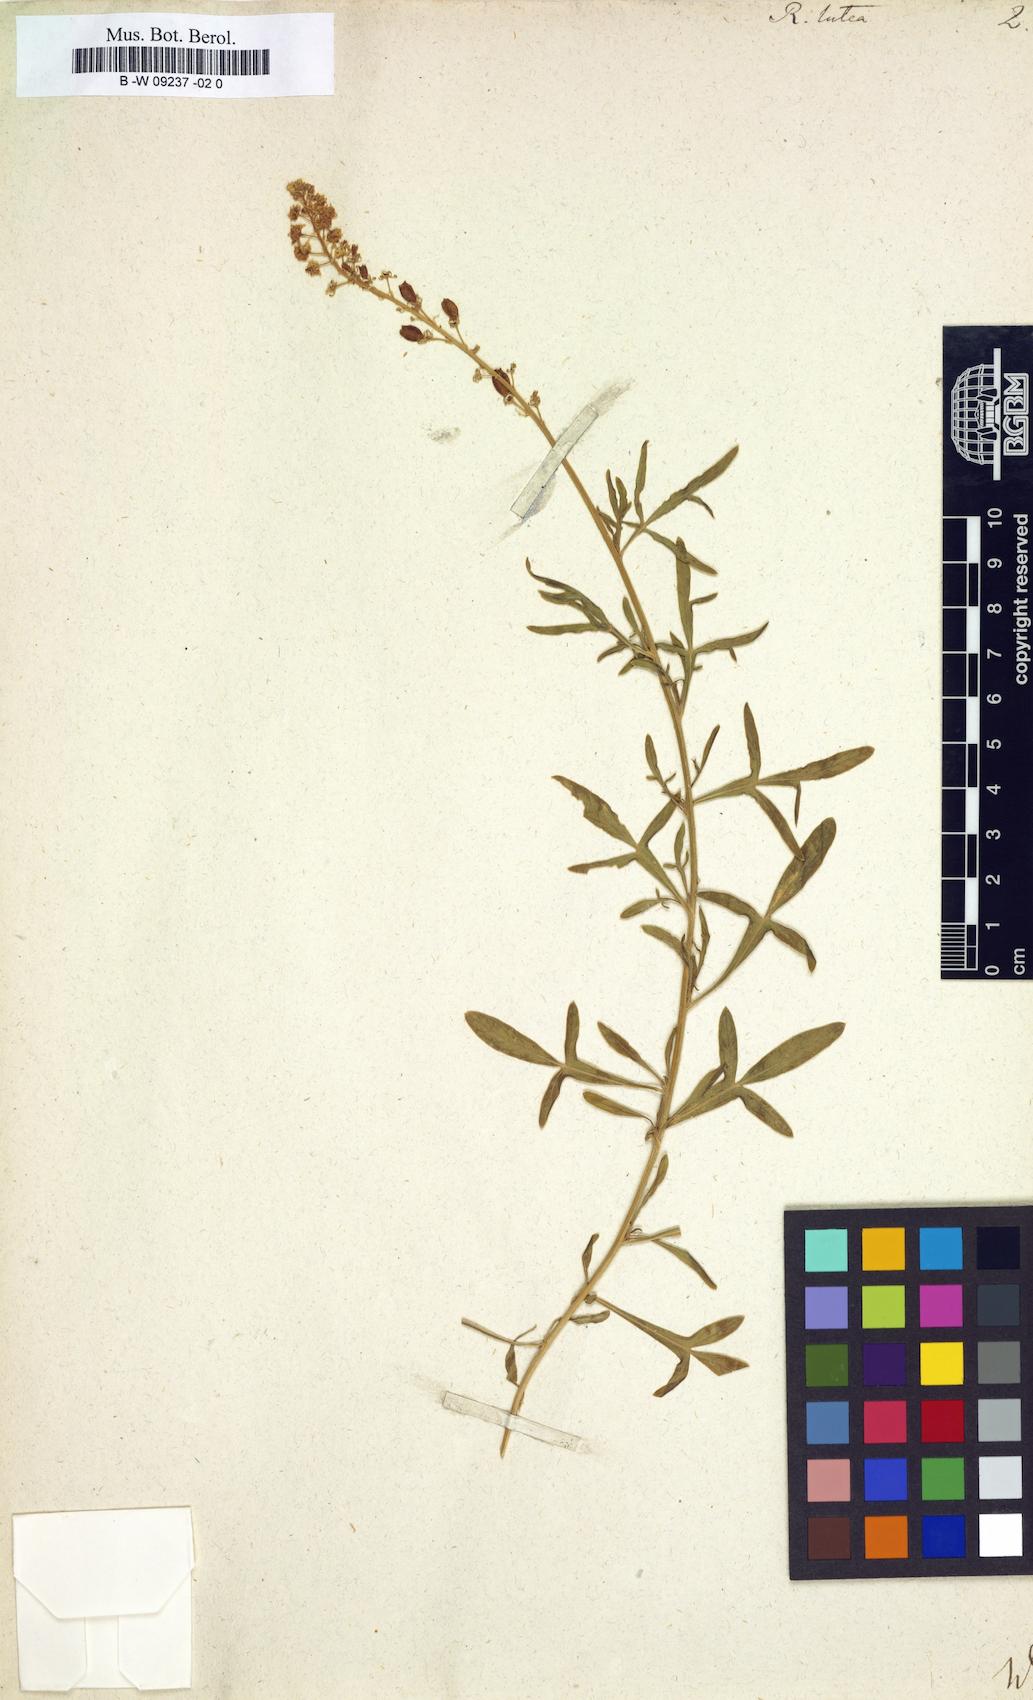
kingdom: Plantae
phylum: Tracheophyta
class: Magnoliopsida
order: Brassicales
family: Resedaceae
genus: Reseda
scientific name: Reseda lutea
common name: Wild mignonette
